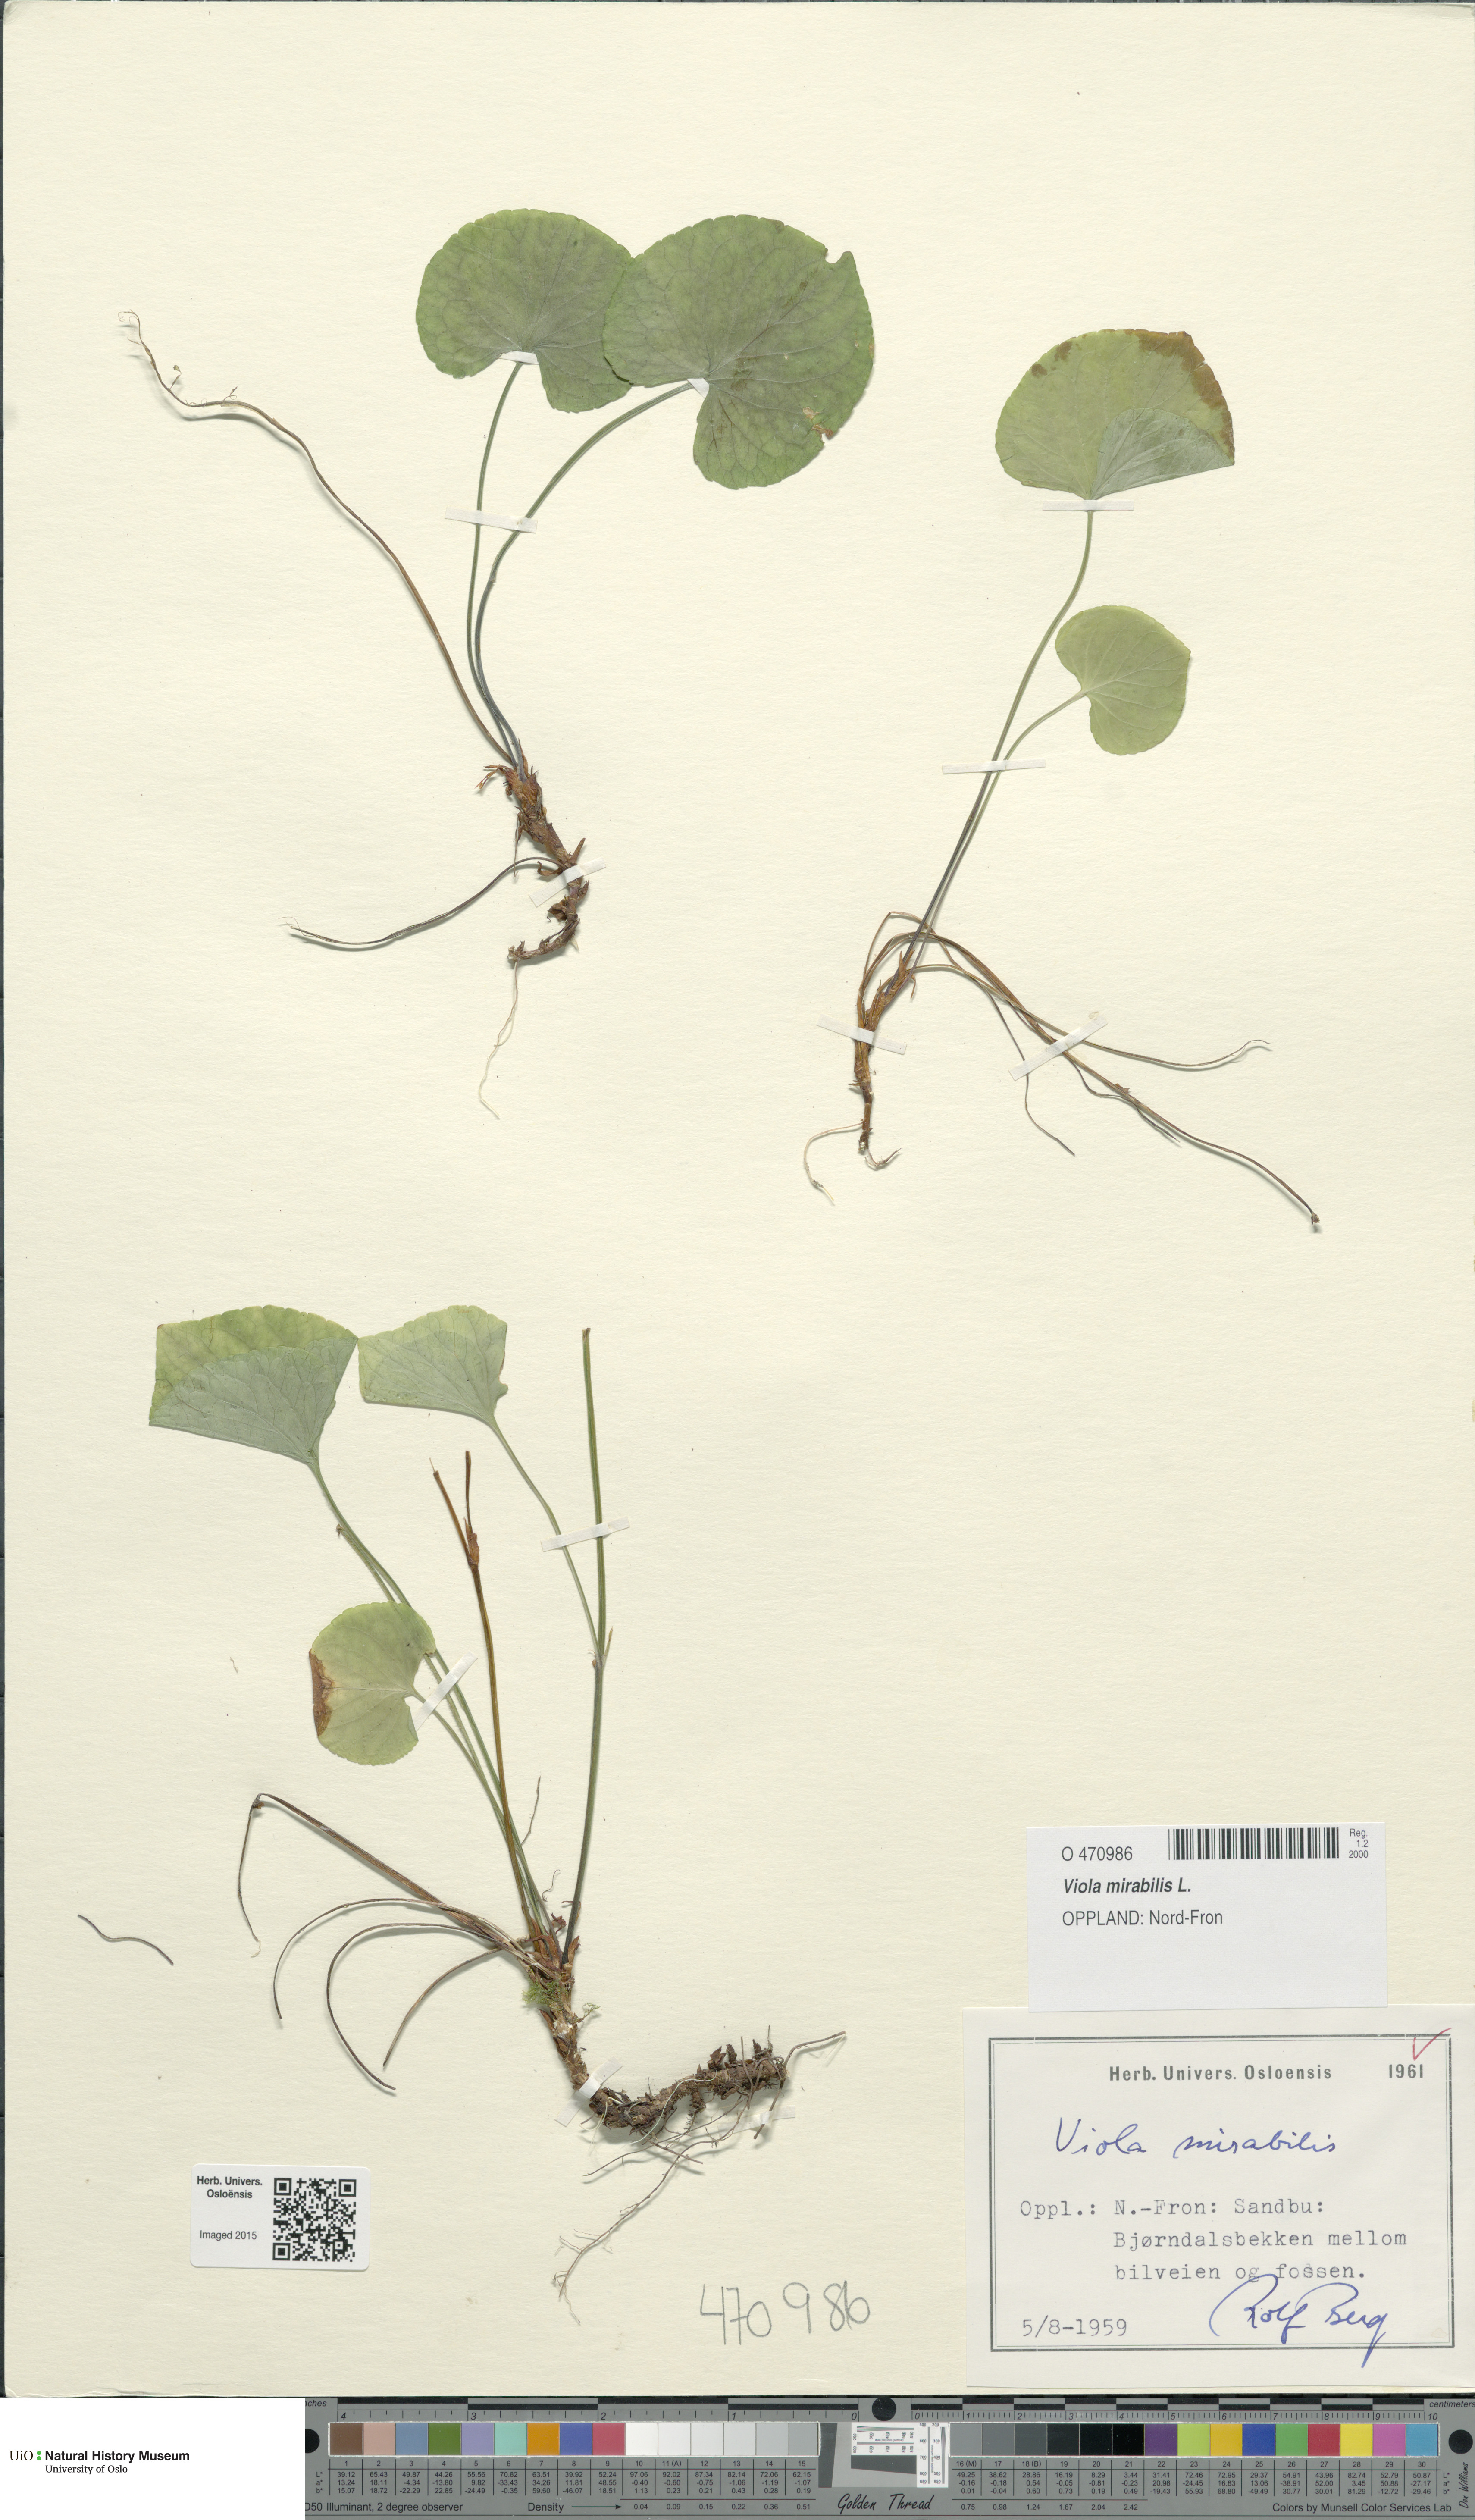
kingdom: Plantae
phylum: Tracheophyta
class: Magnoliopsida
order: Malpighiales
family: Violaceae
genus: Viola
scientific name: Viola mirabilis
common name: Wonder violet
